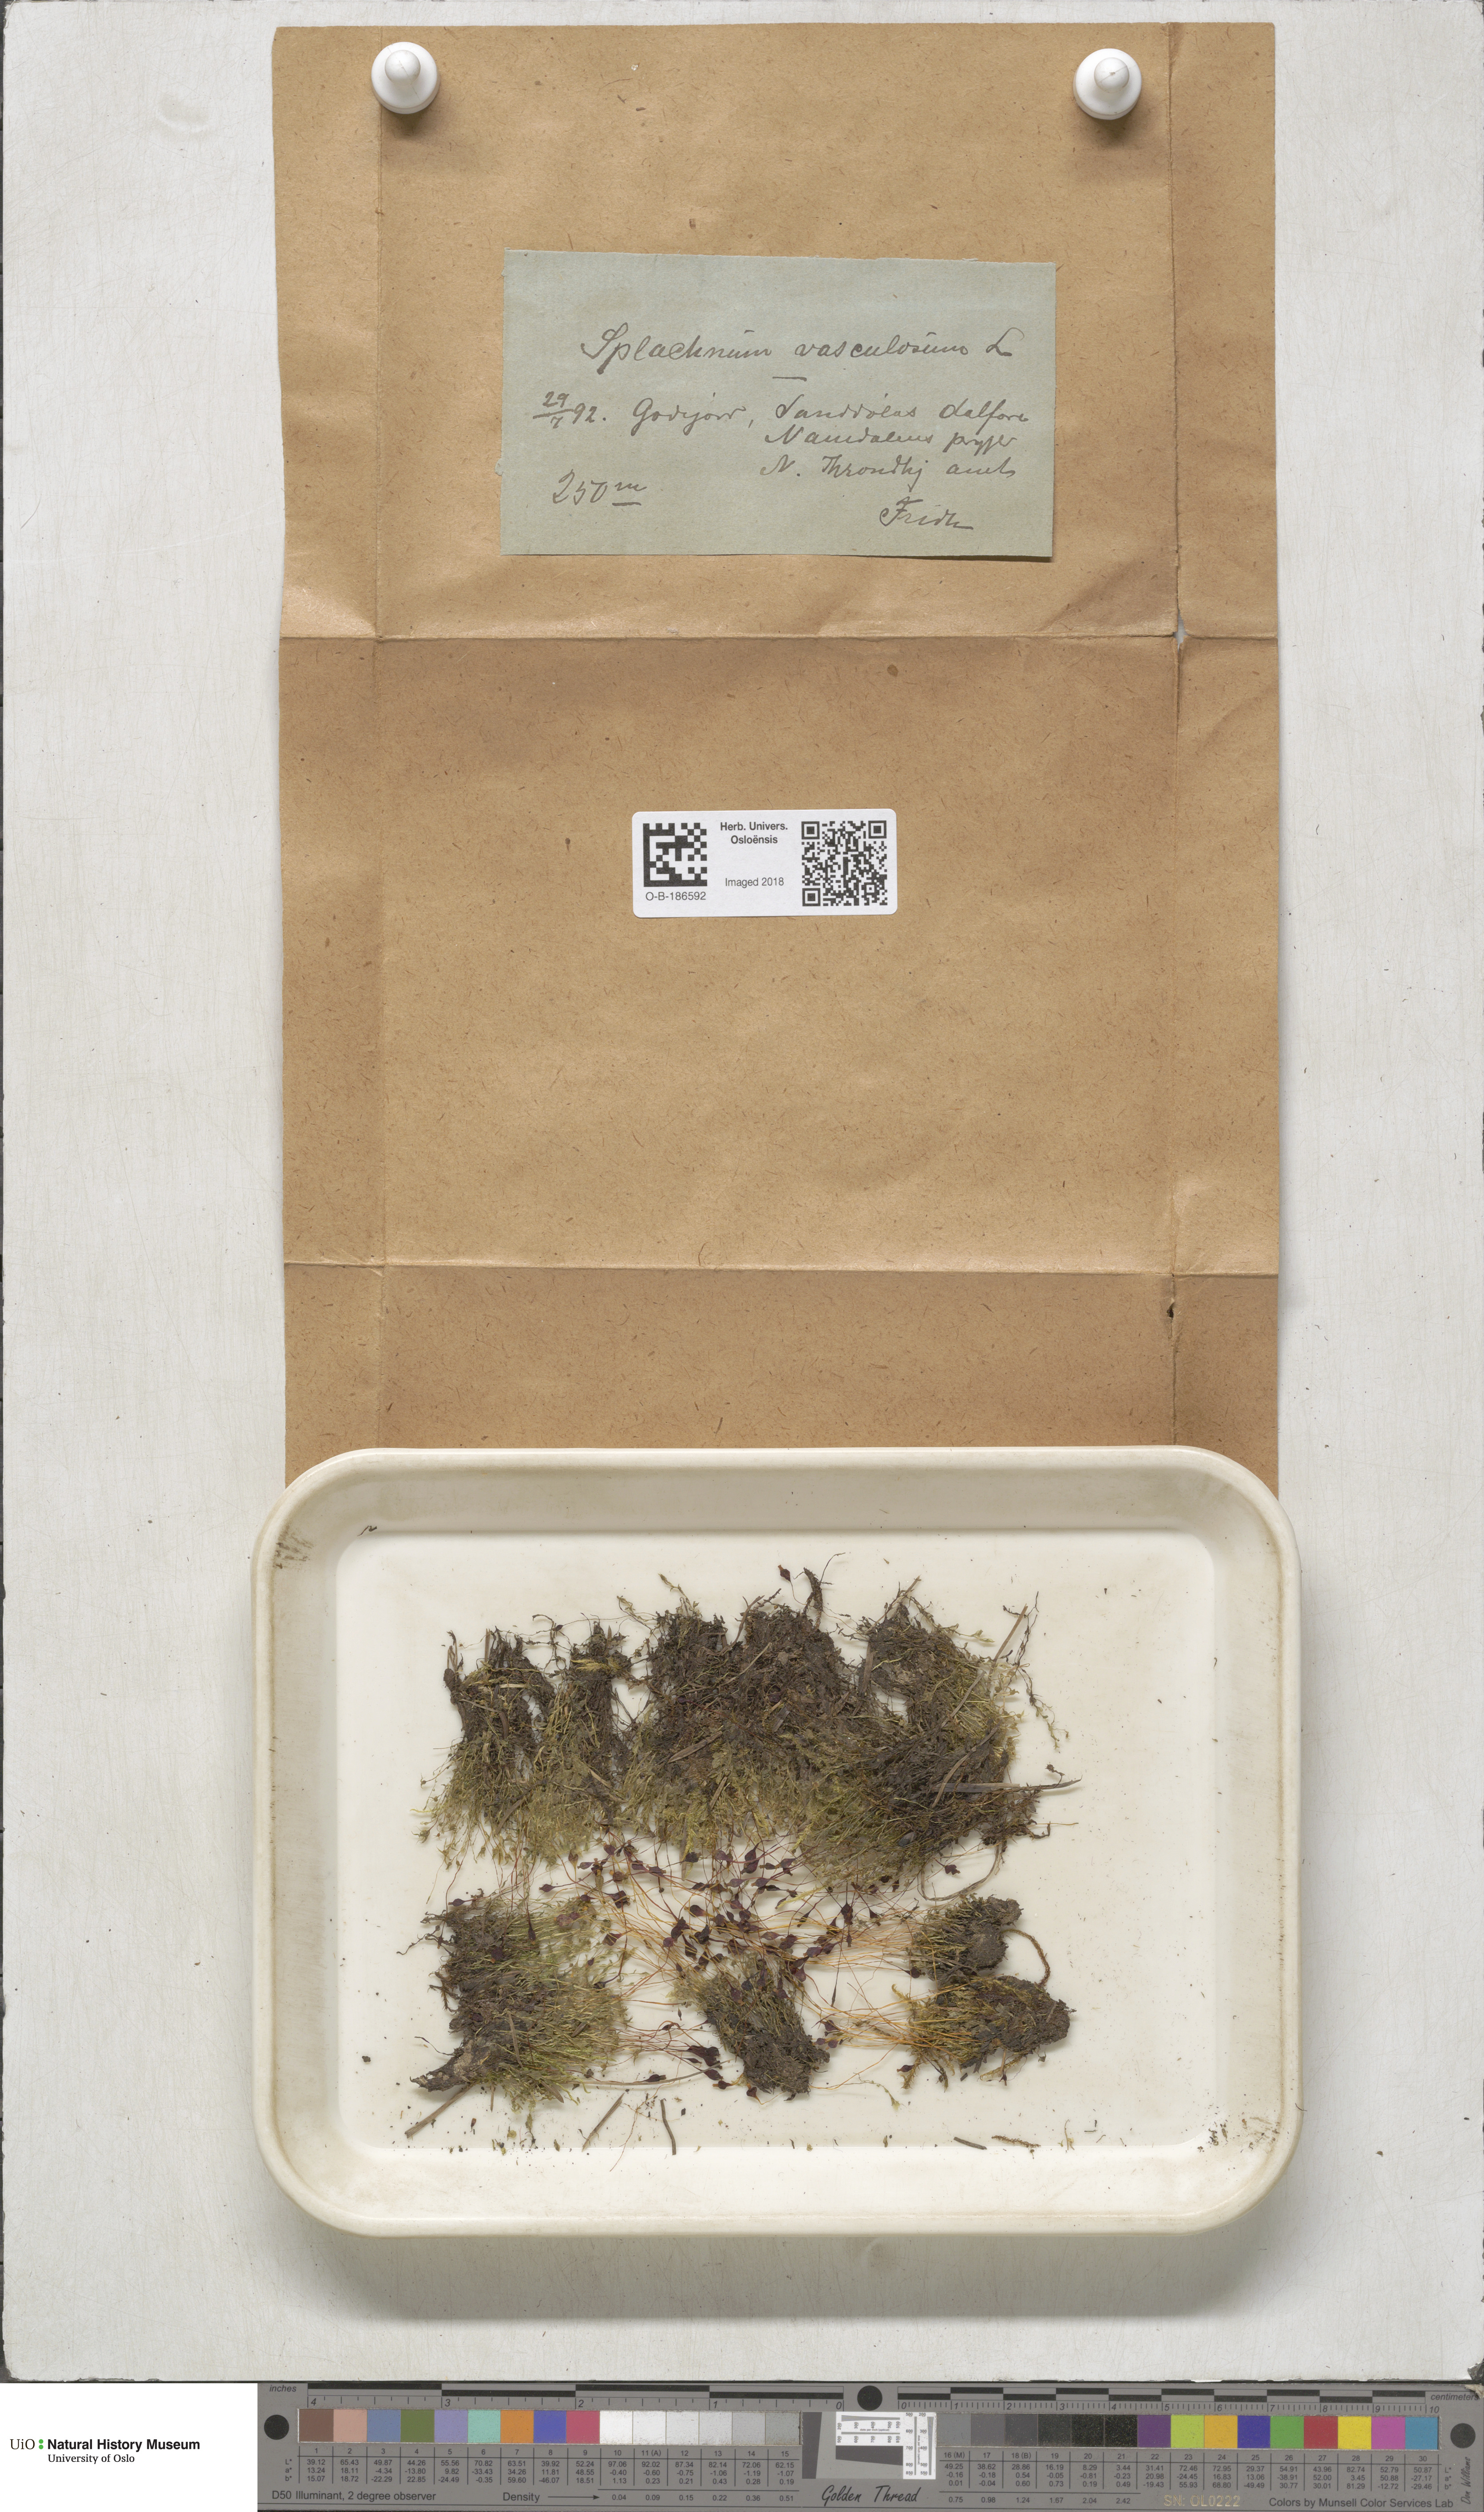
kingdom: Plantae
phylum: Bryophyta
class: Bryopsida
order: Splachnales
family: Splachnaceae
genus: Splachnum
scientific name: Splachnum vasculosum
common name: Rugged dung moss
